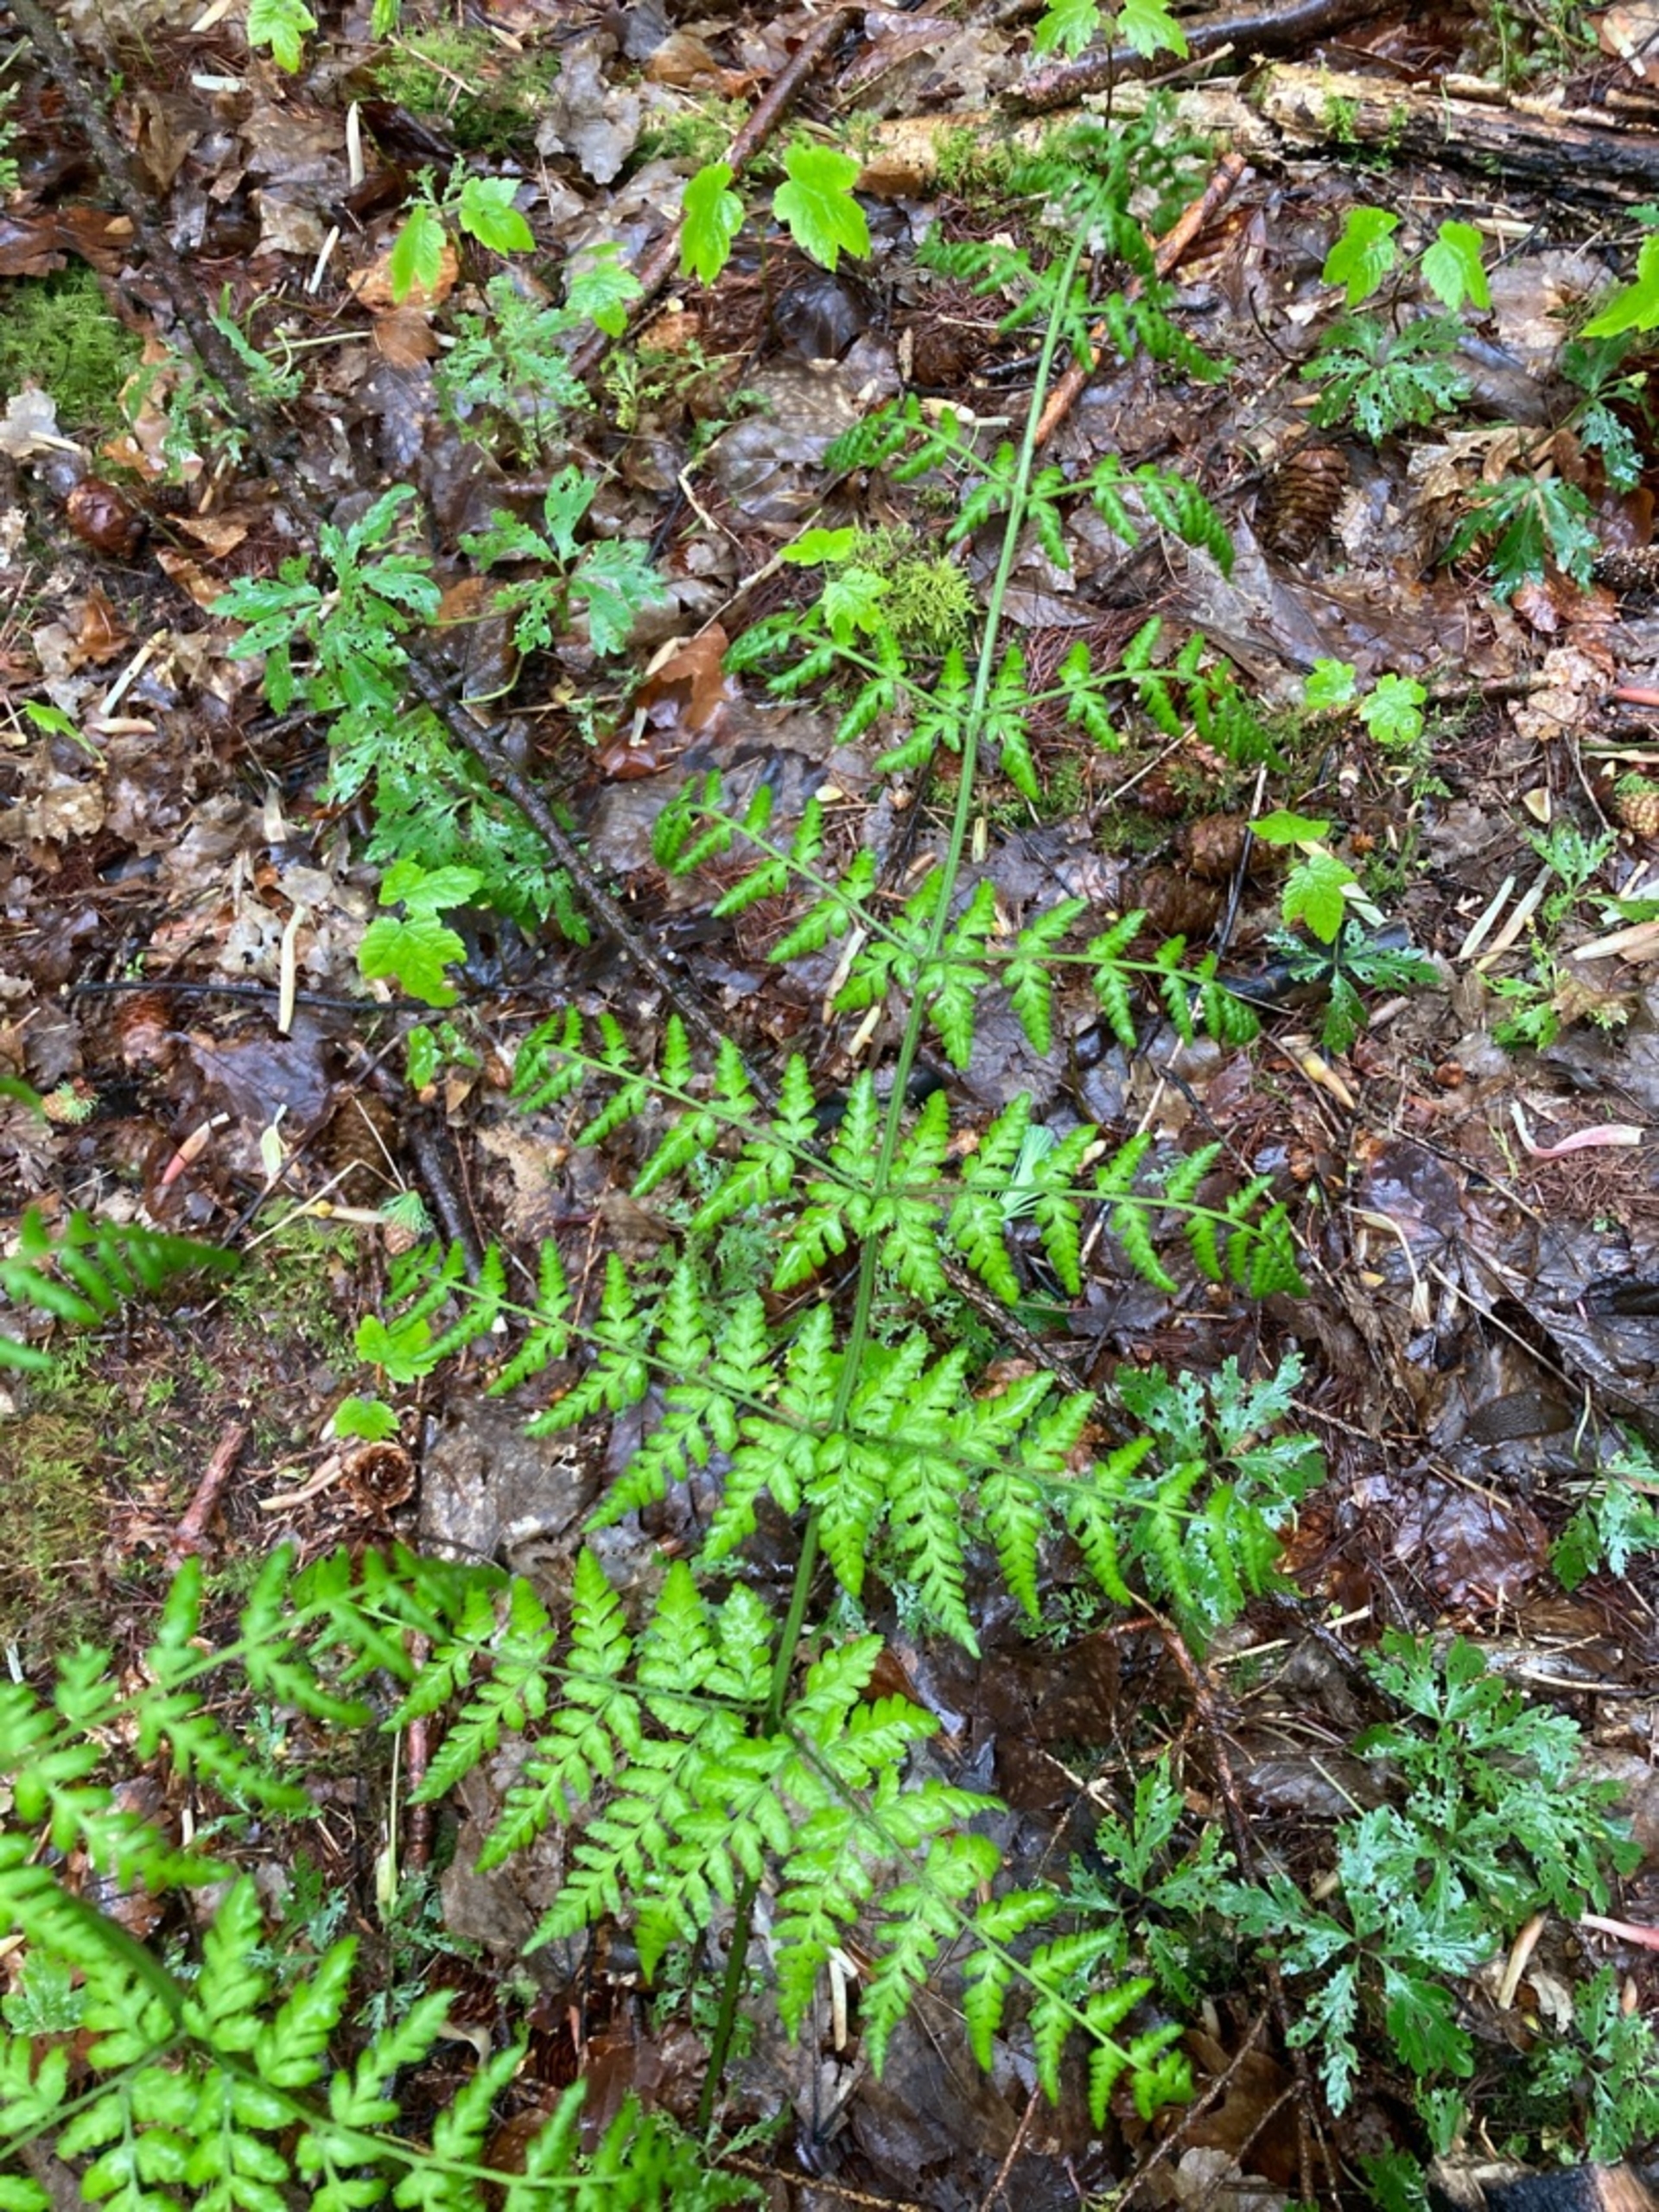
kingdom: Plantae
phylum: Tracheophyta
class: Polypodiopsida
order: Polypodiales
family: Dryopteridaceae
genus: Dryopteris
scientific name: Dryopteris dilatata
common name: Bredbladet mangeløv
